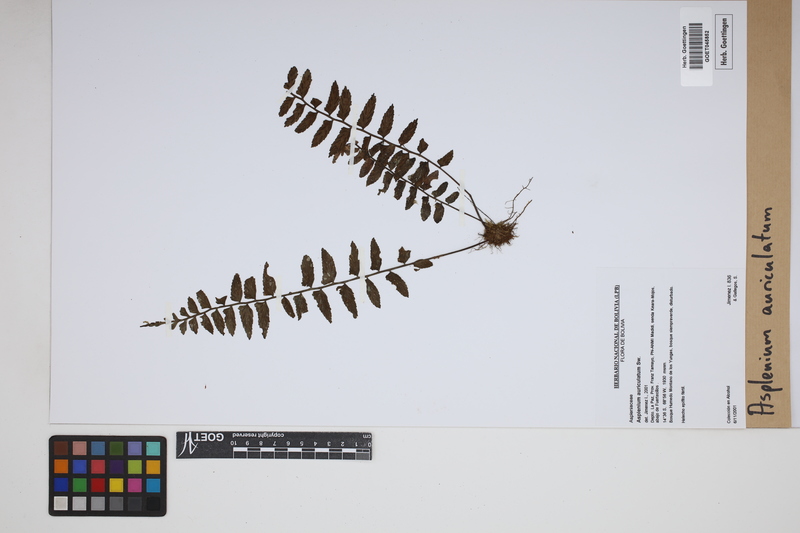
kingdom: Plantae
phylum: Tracheophyta
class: Polypodiopsida
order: Polypodiales
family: Aspleniaceae
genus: Asplenium
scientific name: Asplenium auriculatum
